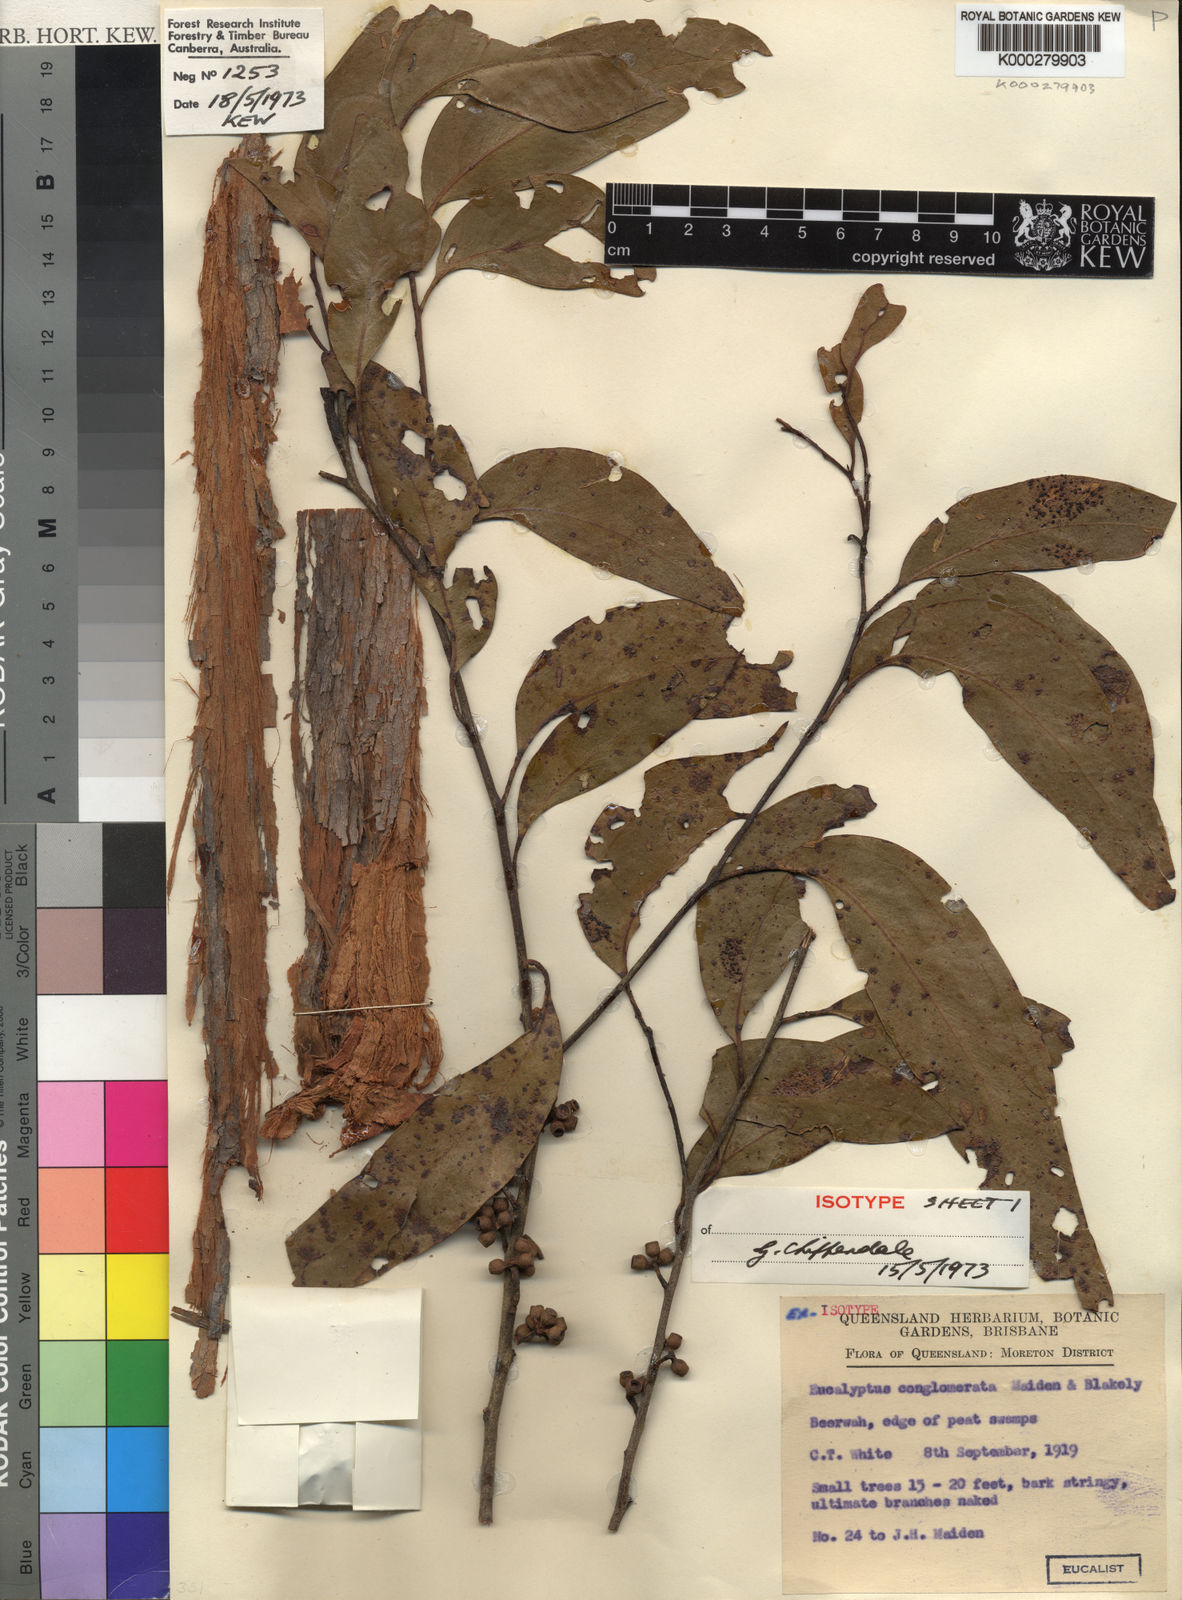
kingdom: Plantae
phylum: Tracheophyta
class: Magnoliopsida
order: Myrtales
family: Myrtaceae
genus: Eucalyptus
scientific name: Eucalyptus conglomerata
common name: Swamp stringybark
